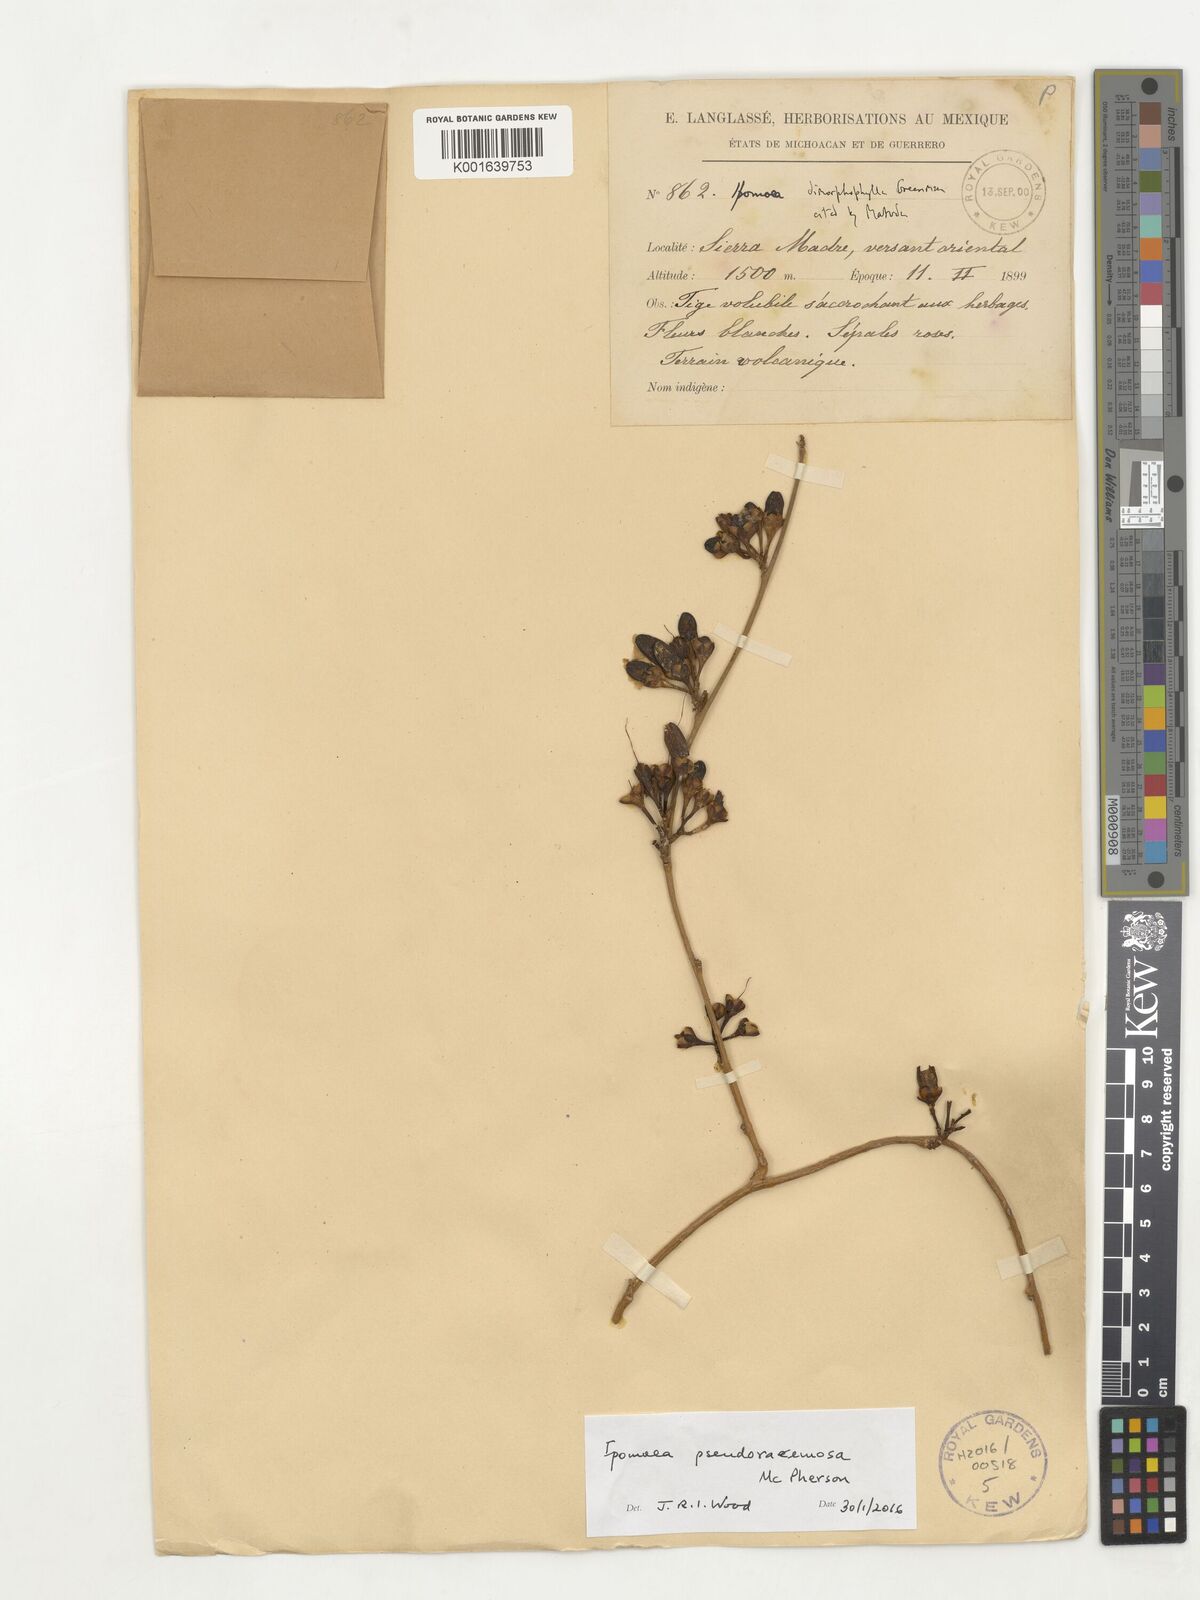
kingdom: Plantae
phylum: Tracheophyta
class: Magnoliopsida
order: Solanales
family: Convolvulaceae
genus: Ipomoea
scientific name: Ipomoea pseudoracemosa
